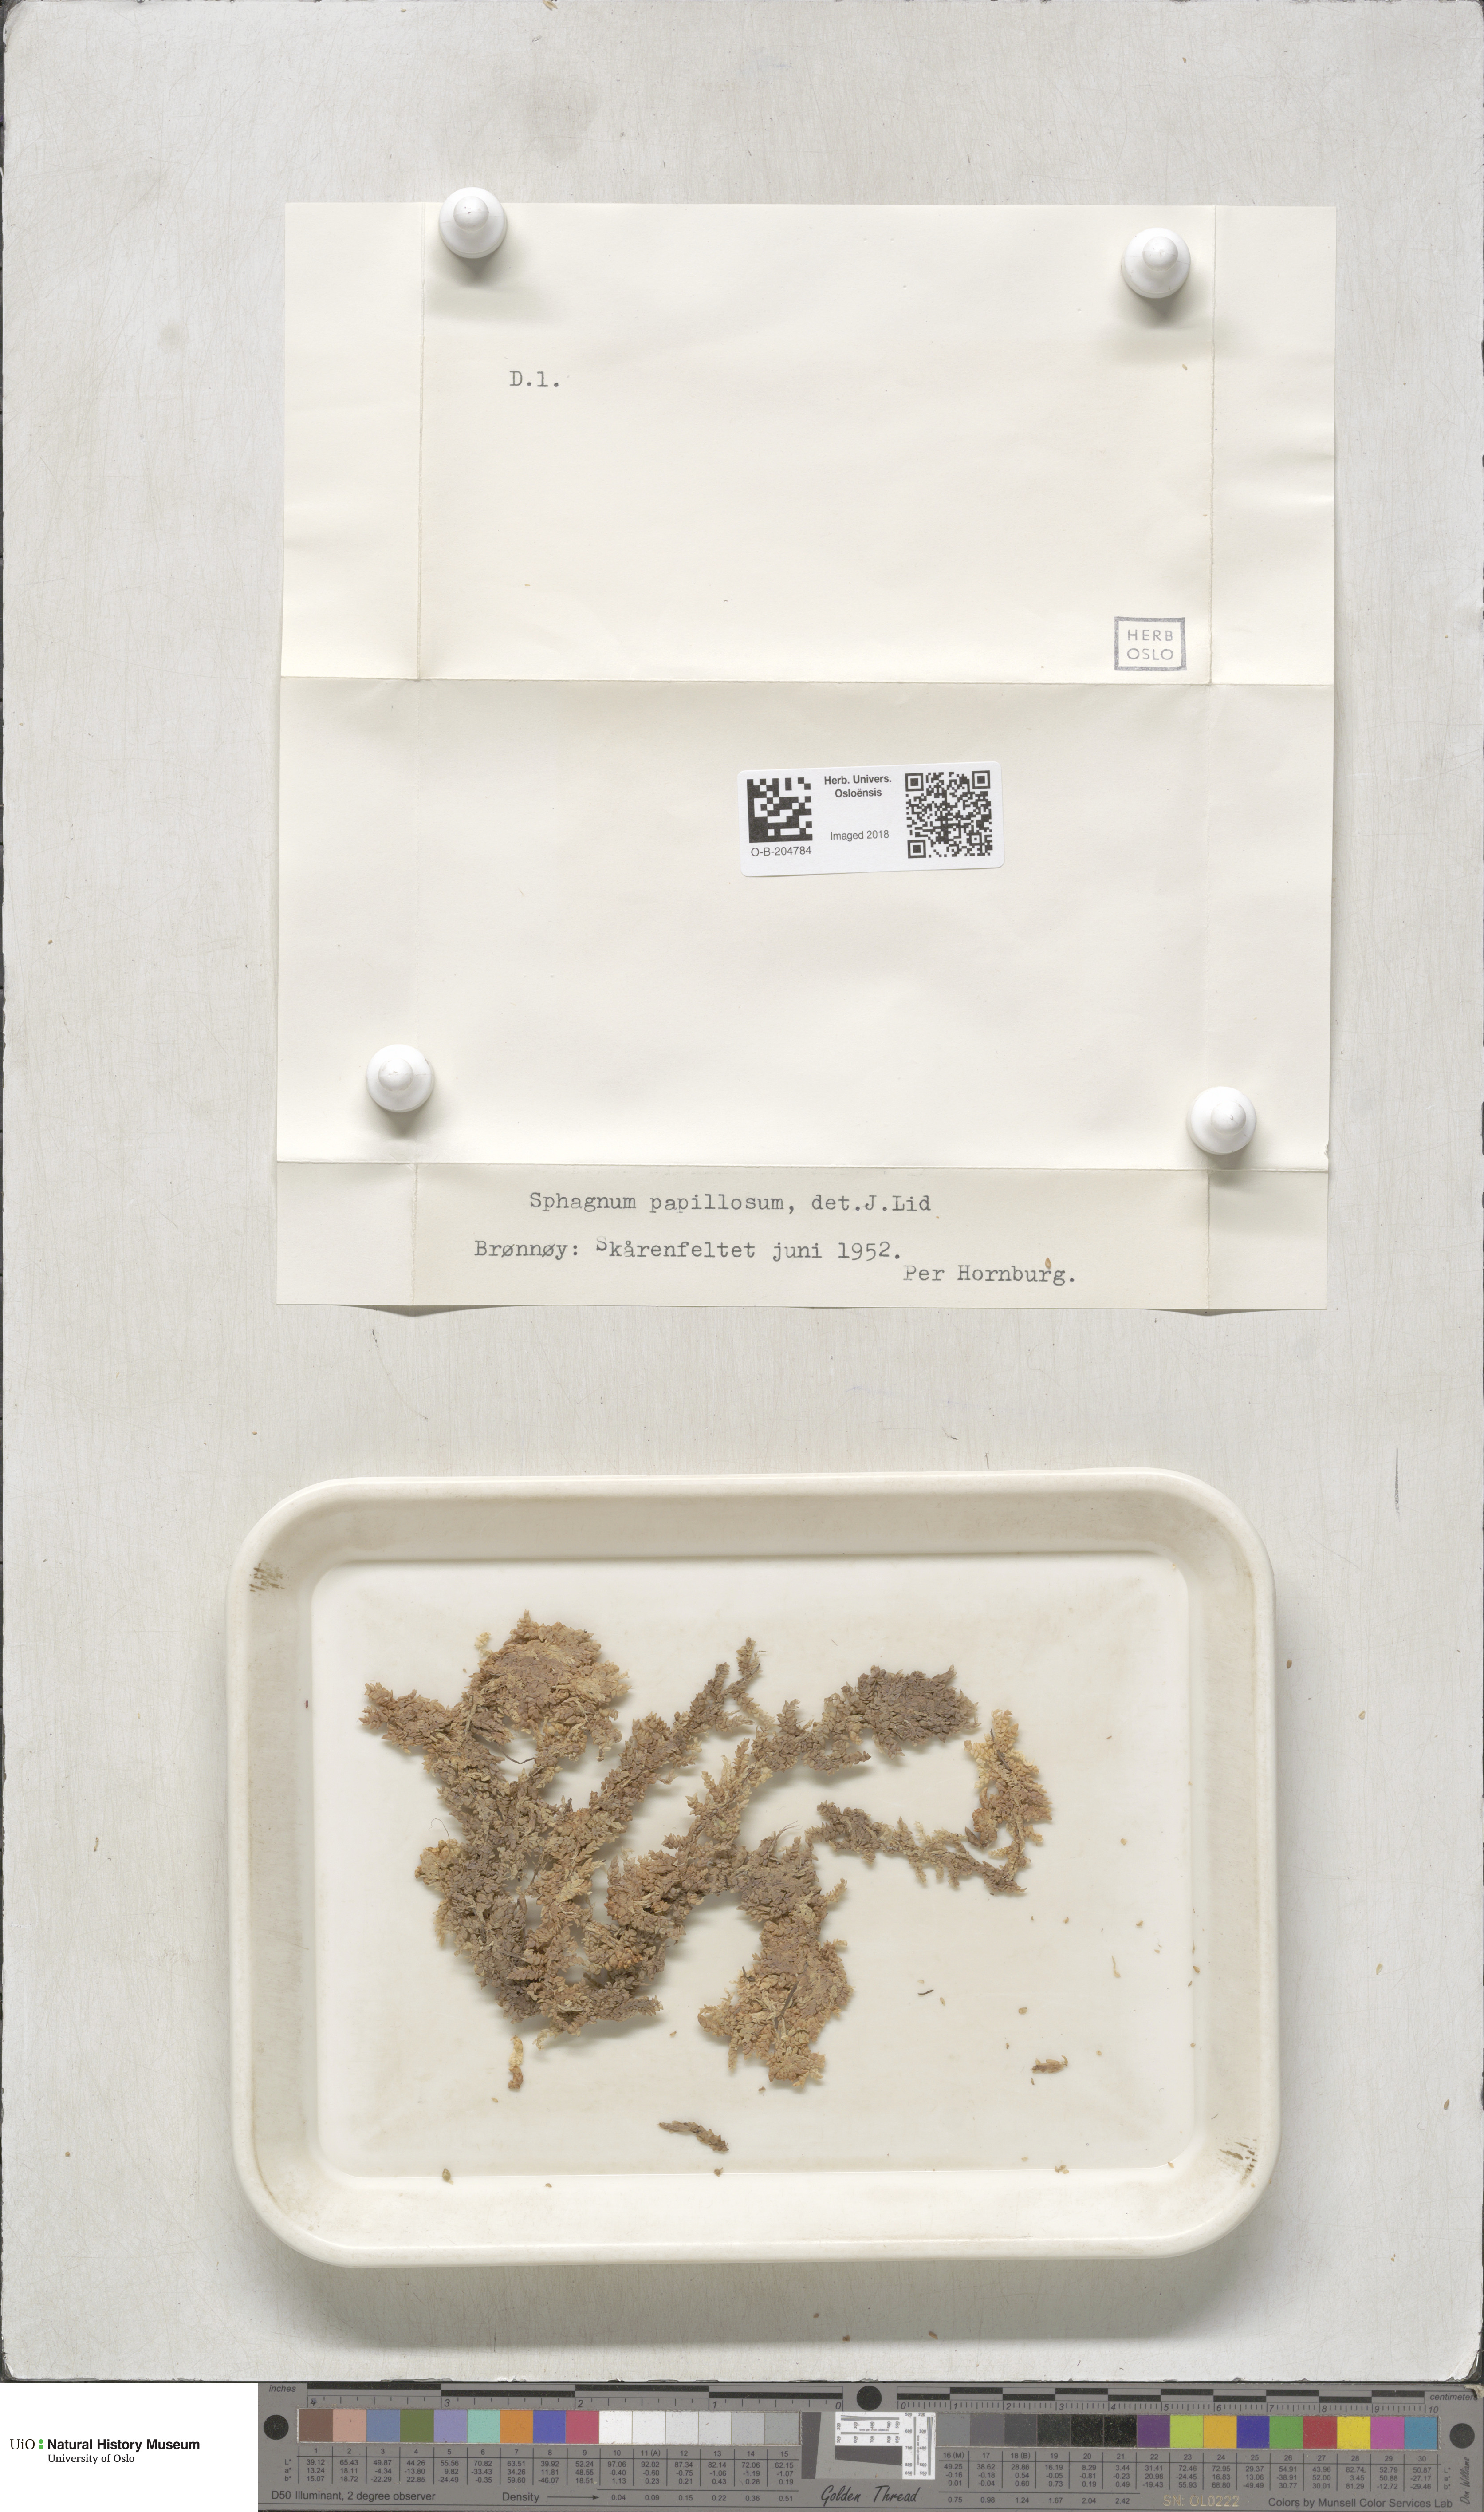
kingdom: Plantae
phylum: Bryophyta
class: Sphagnopsida
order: Sphagnales
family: Sphagnaceae
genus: Sphagnum
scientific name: Sphagnum papillosum
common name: Papillose peat moss
